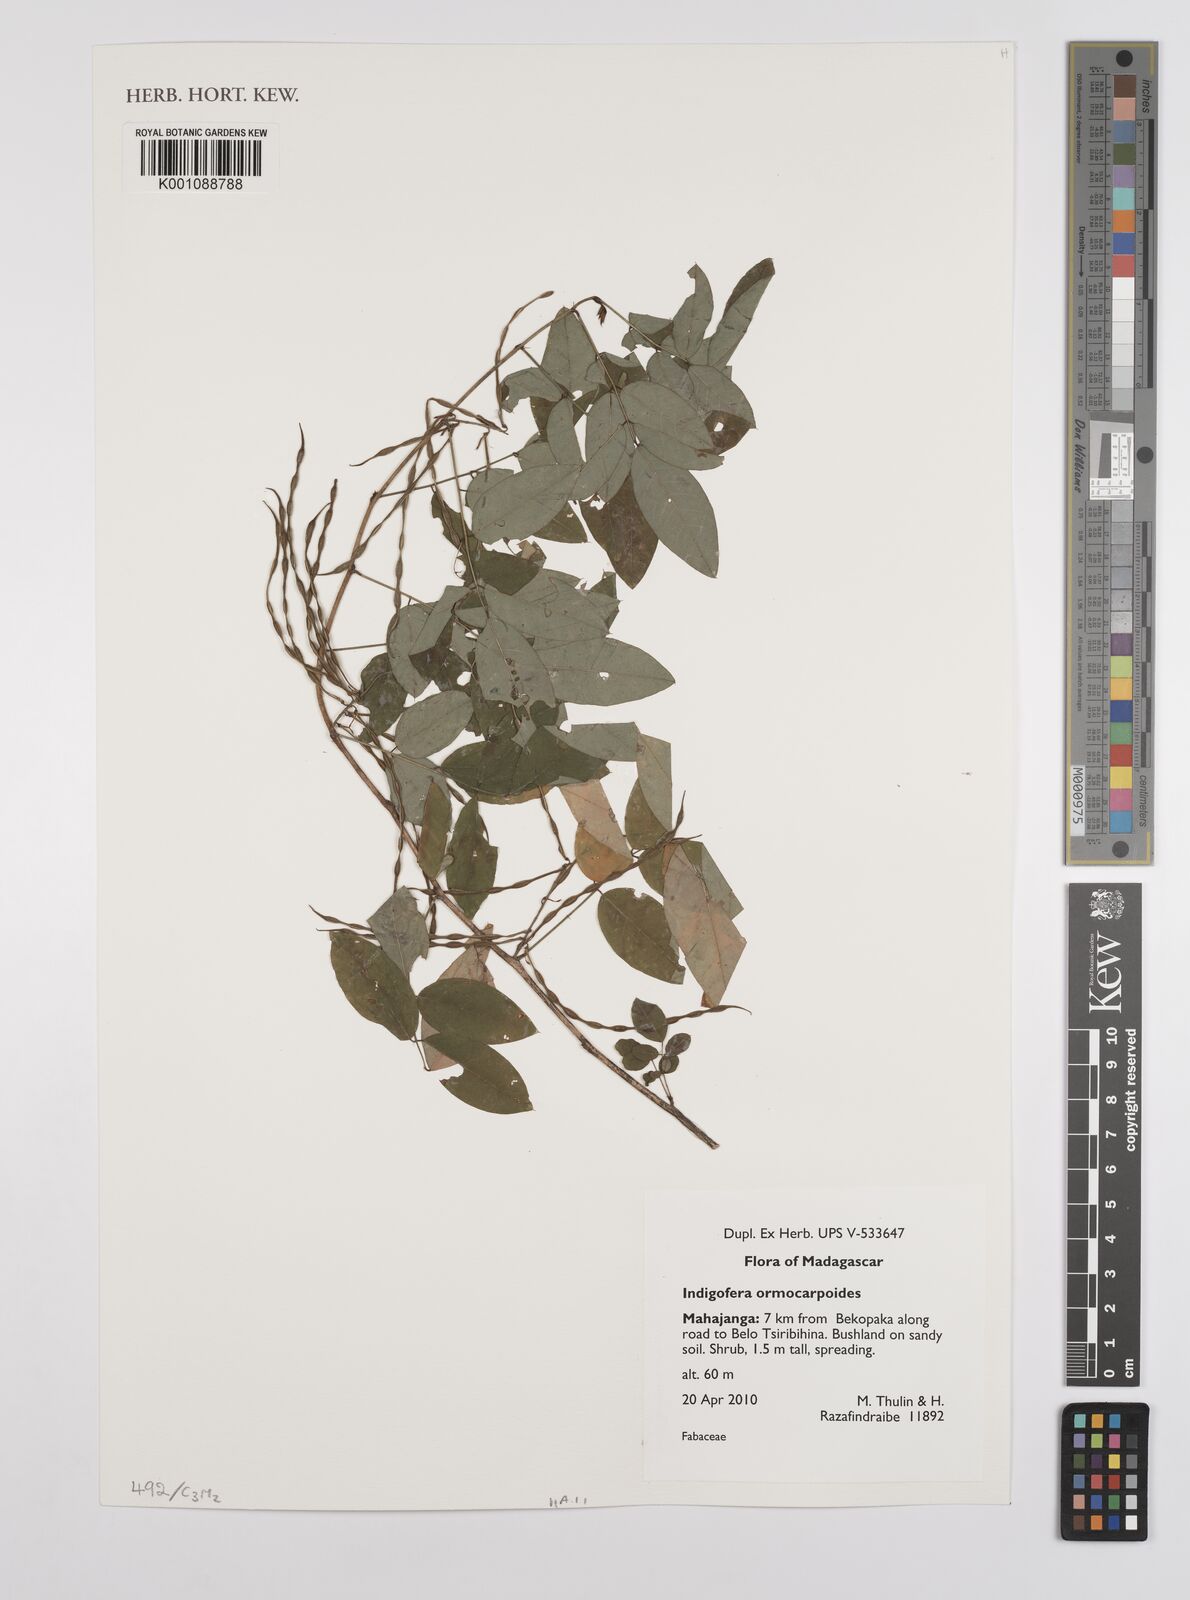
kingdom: Plantae
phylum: Tracheophyta
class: Magnoliopsida
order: Fabales
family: Fabaceae
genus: Indigofera
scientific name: Indigofera ormocarpoides
